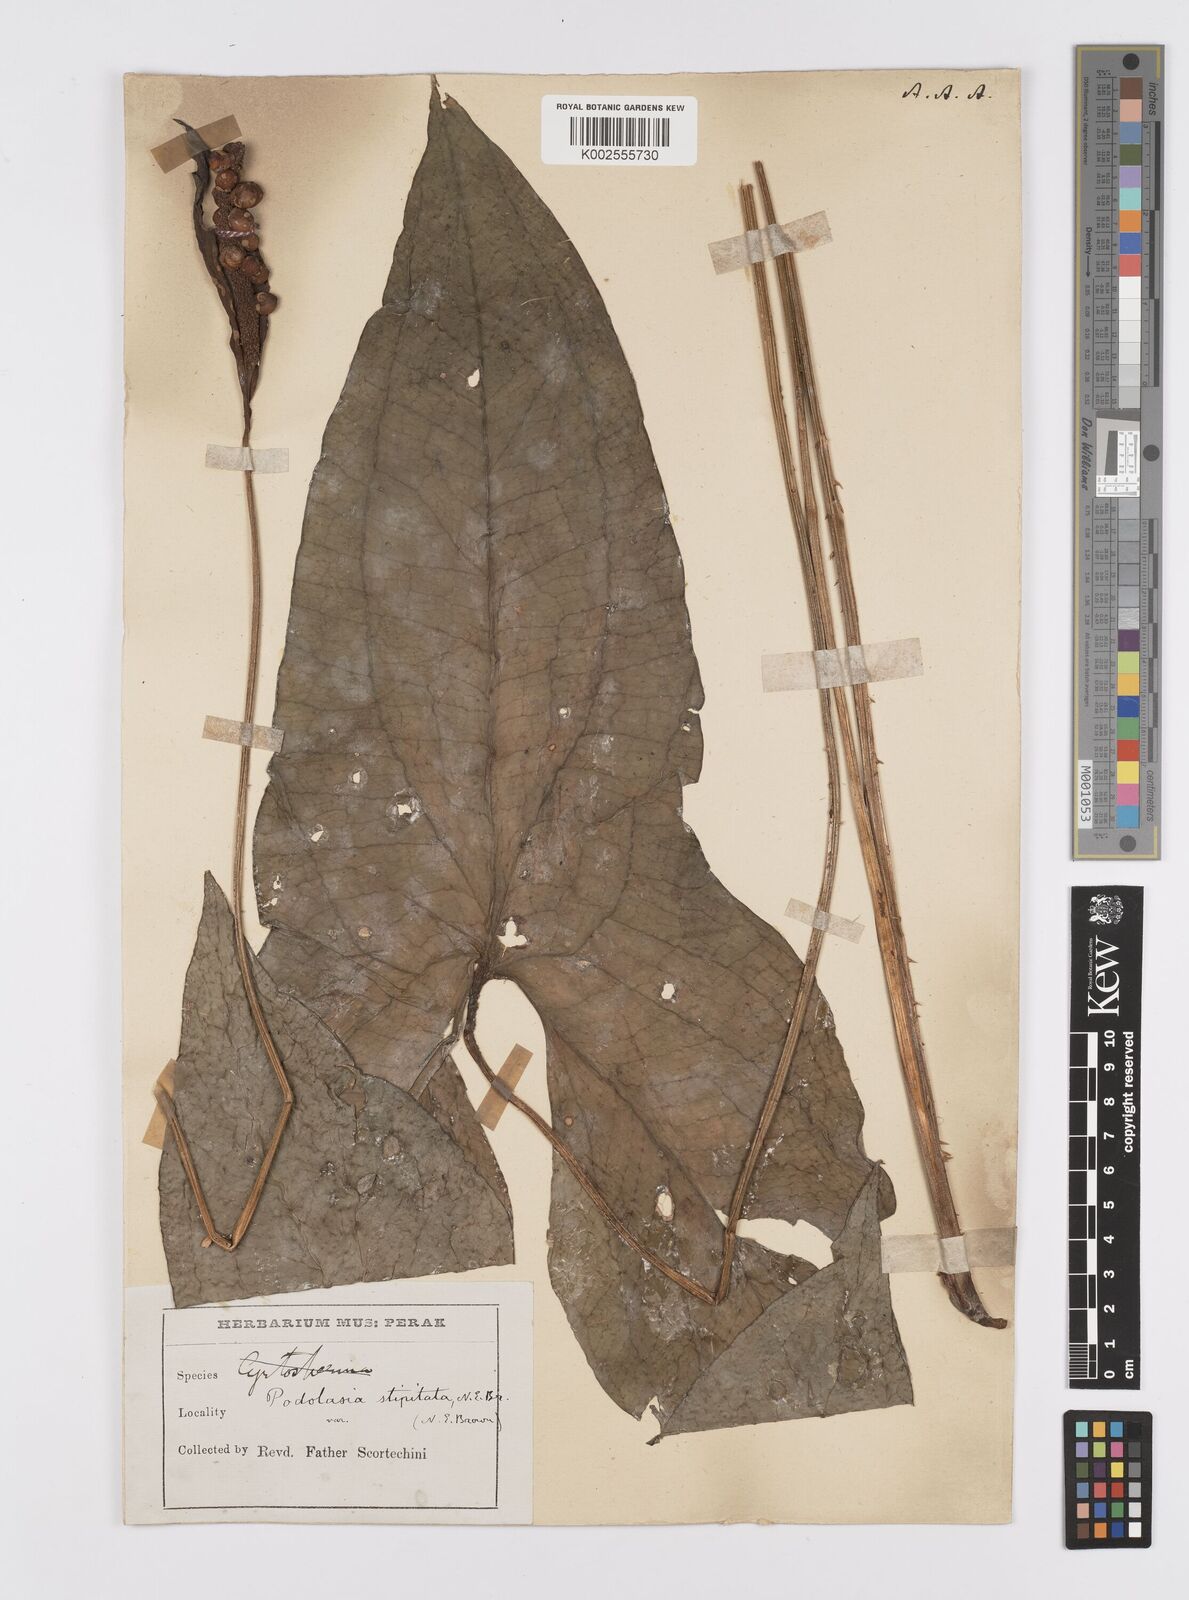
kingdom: Plantae
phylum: Tracheophyta
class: Liliopsida
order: Alismatales
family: Araceae
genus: Podolasia
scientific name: Podolasia stipitata
